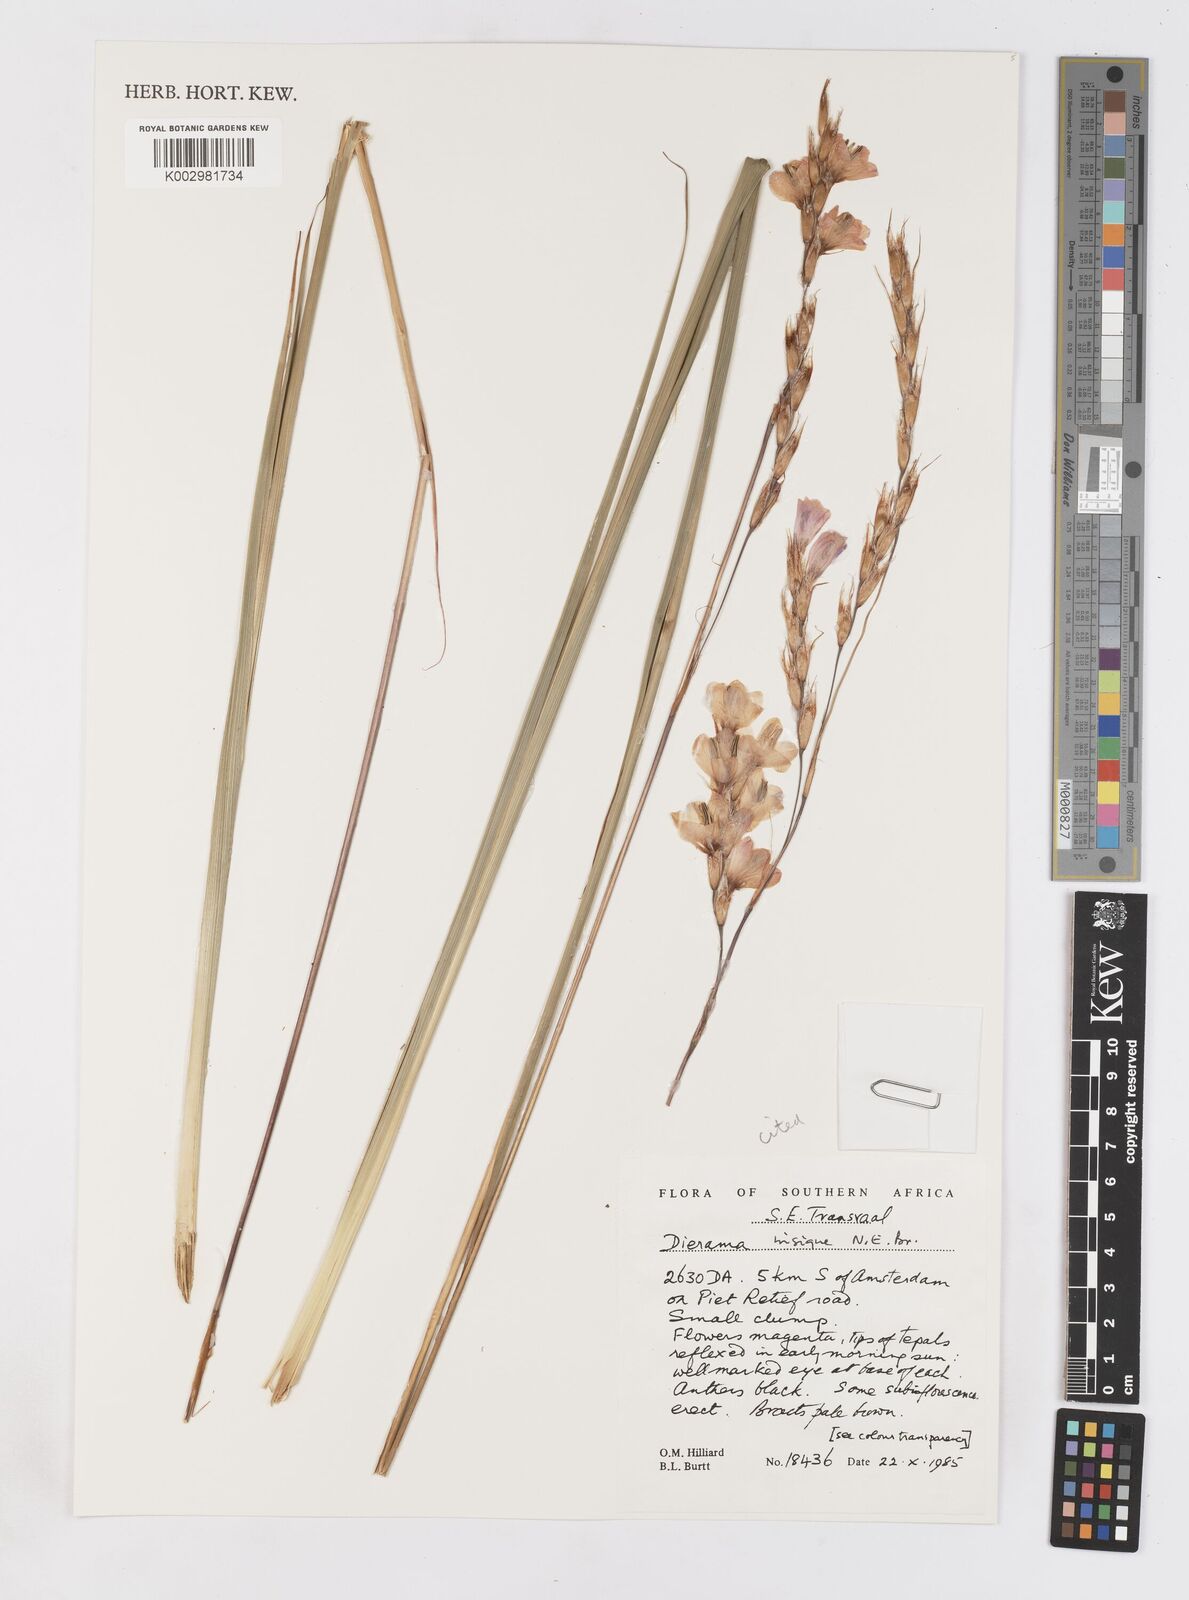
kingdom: Plantae
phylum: Tracheophyta
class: Liliopsida
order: Asparagales
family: Iridaceae
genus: Dierama
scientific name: Dierama insigne
